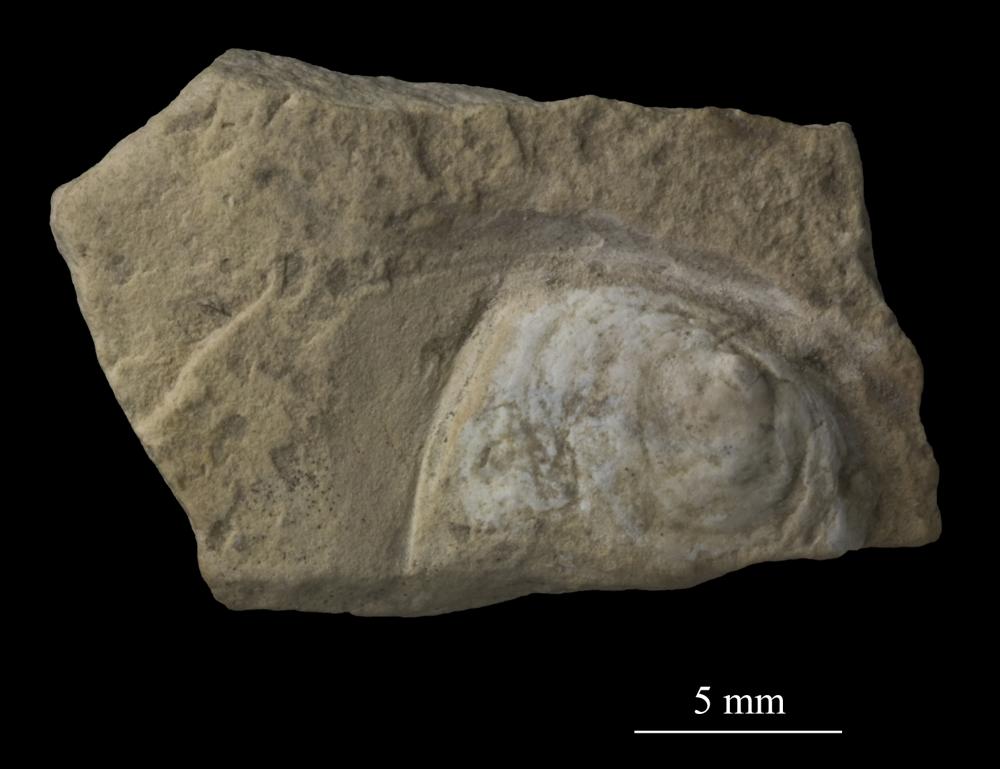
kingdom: Animalia
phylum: Mollusca
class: Gastropoda
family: Platyceratidae
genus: Cyclonema
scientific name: Cyclonema Turbo rupestre
